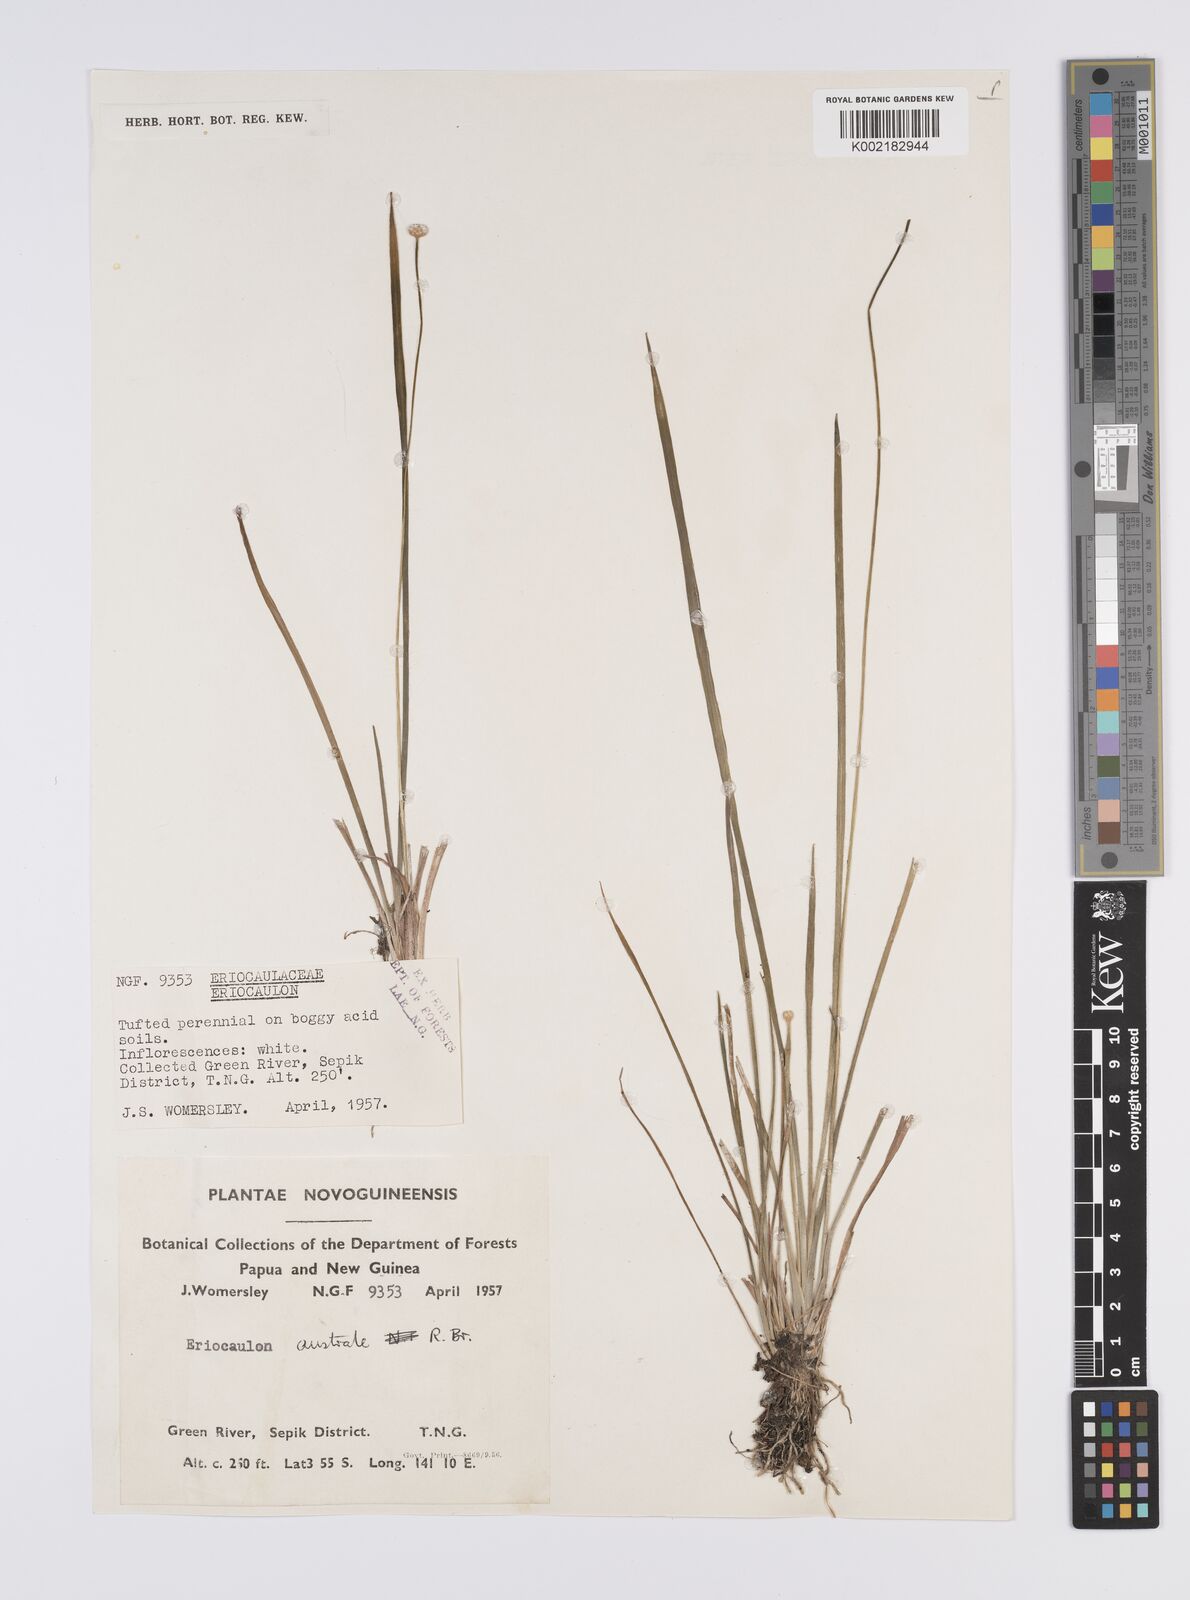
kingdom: Plantae
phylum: Tracheophyta
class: Liliopsida
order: Poales
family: Eriocaulaceae
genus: Eriocaulon
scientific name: Eriocaulon australe
